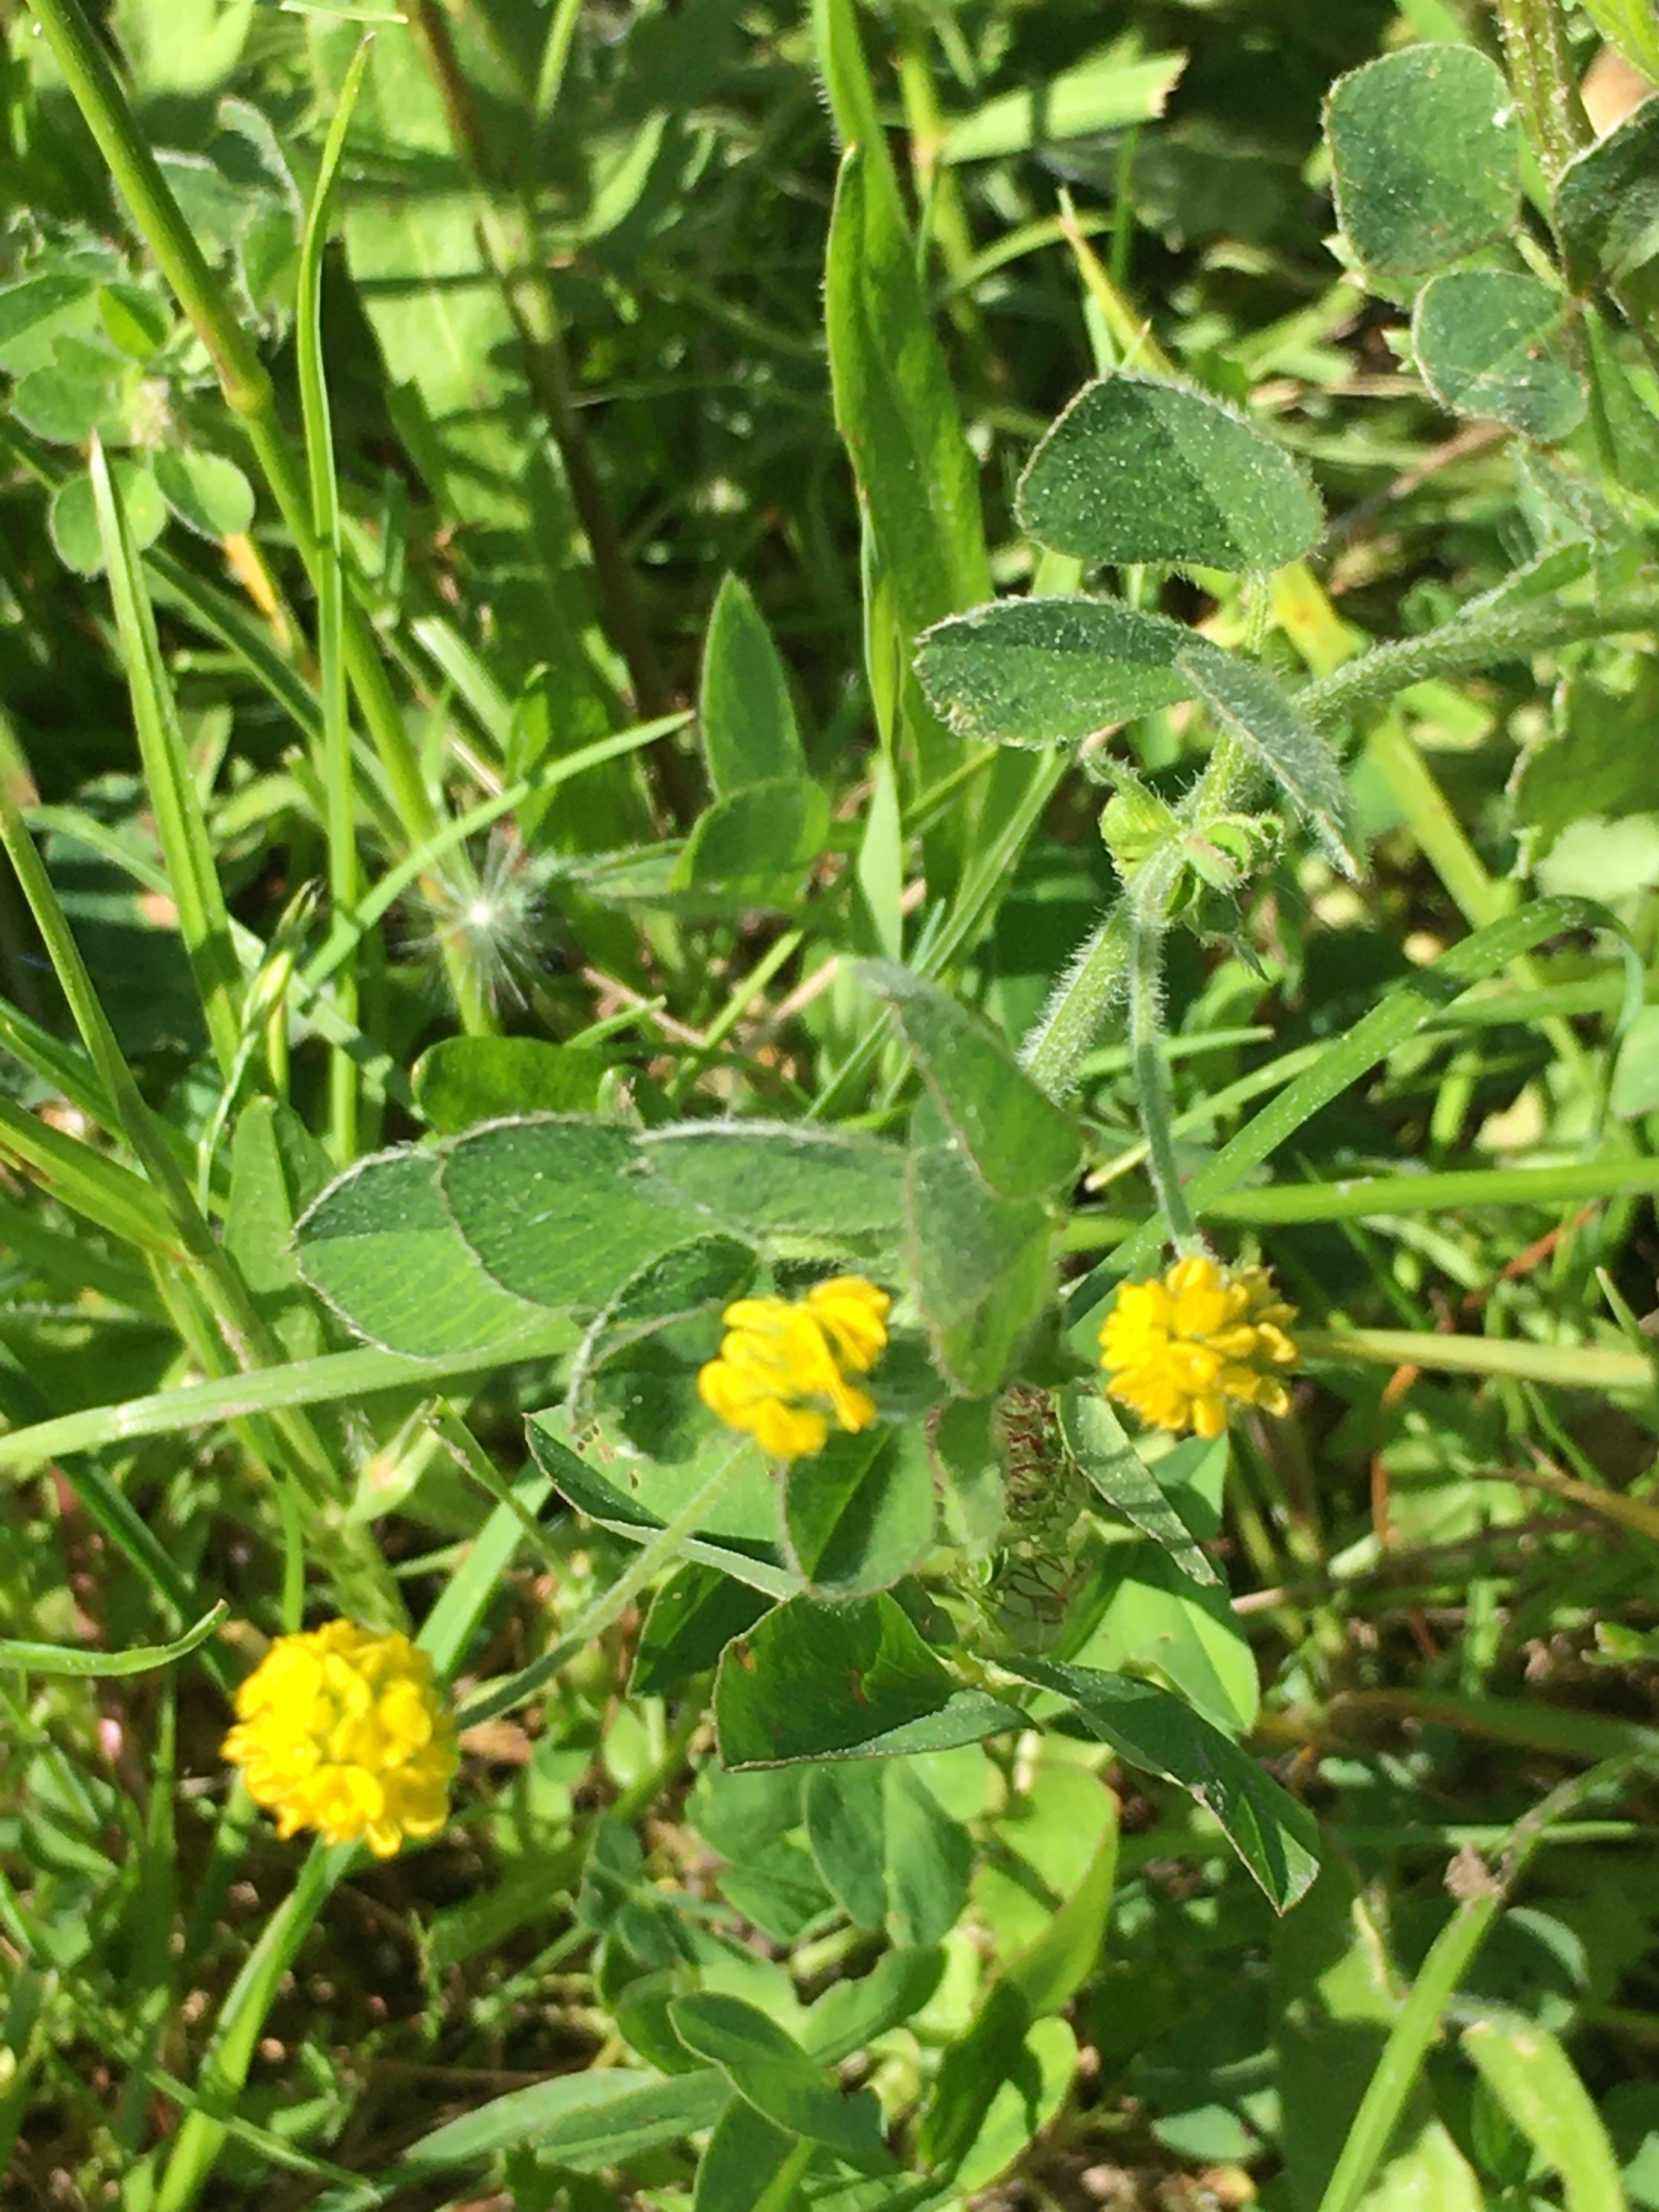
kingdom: Plantae
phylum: Tracheophyta
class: Magnoliopsida
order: Fabales
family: Fabaceae
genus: Medicago
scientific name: Medicago lupulina
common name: Humle-sneglebælg
